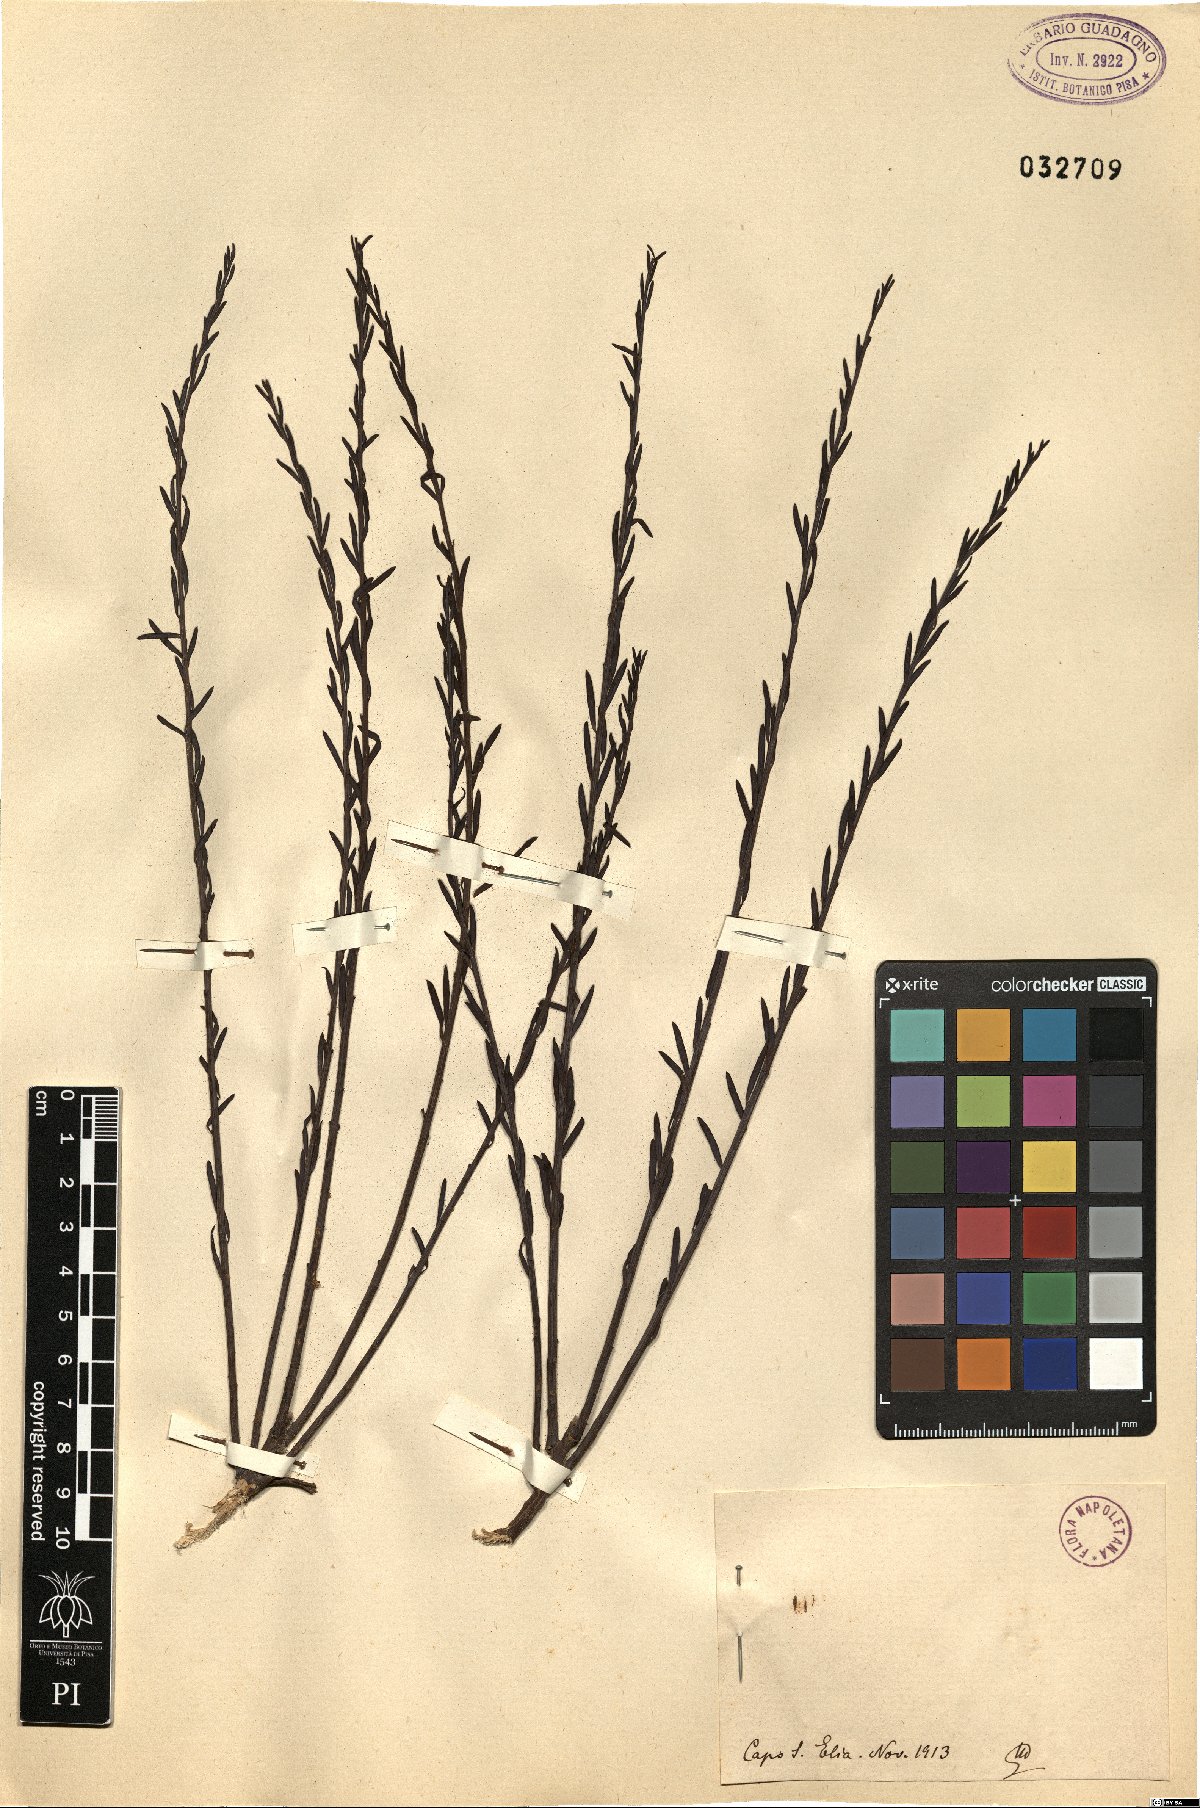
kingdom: Plantae
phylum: Tracheophyta
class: Magnoliopsida
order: Santalales
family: Santalaceae
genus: Osyris
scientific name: Osyris
